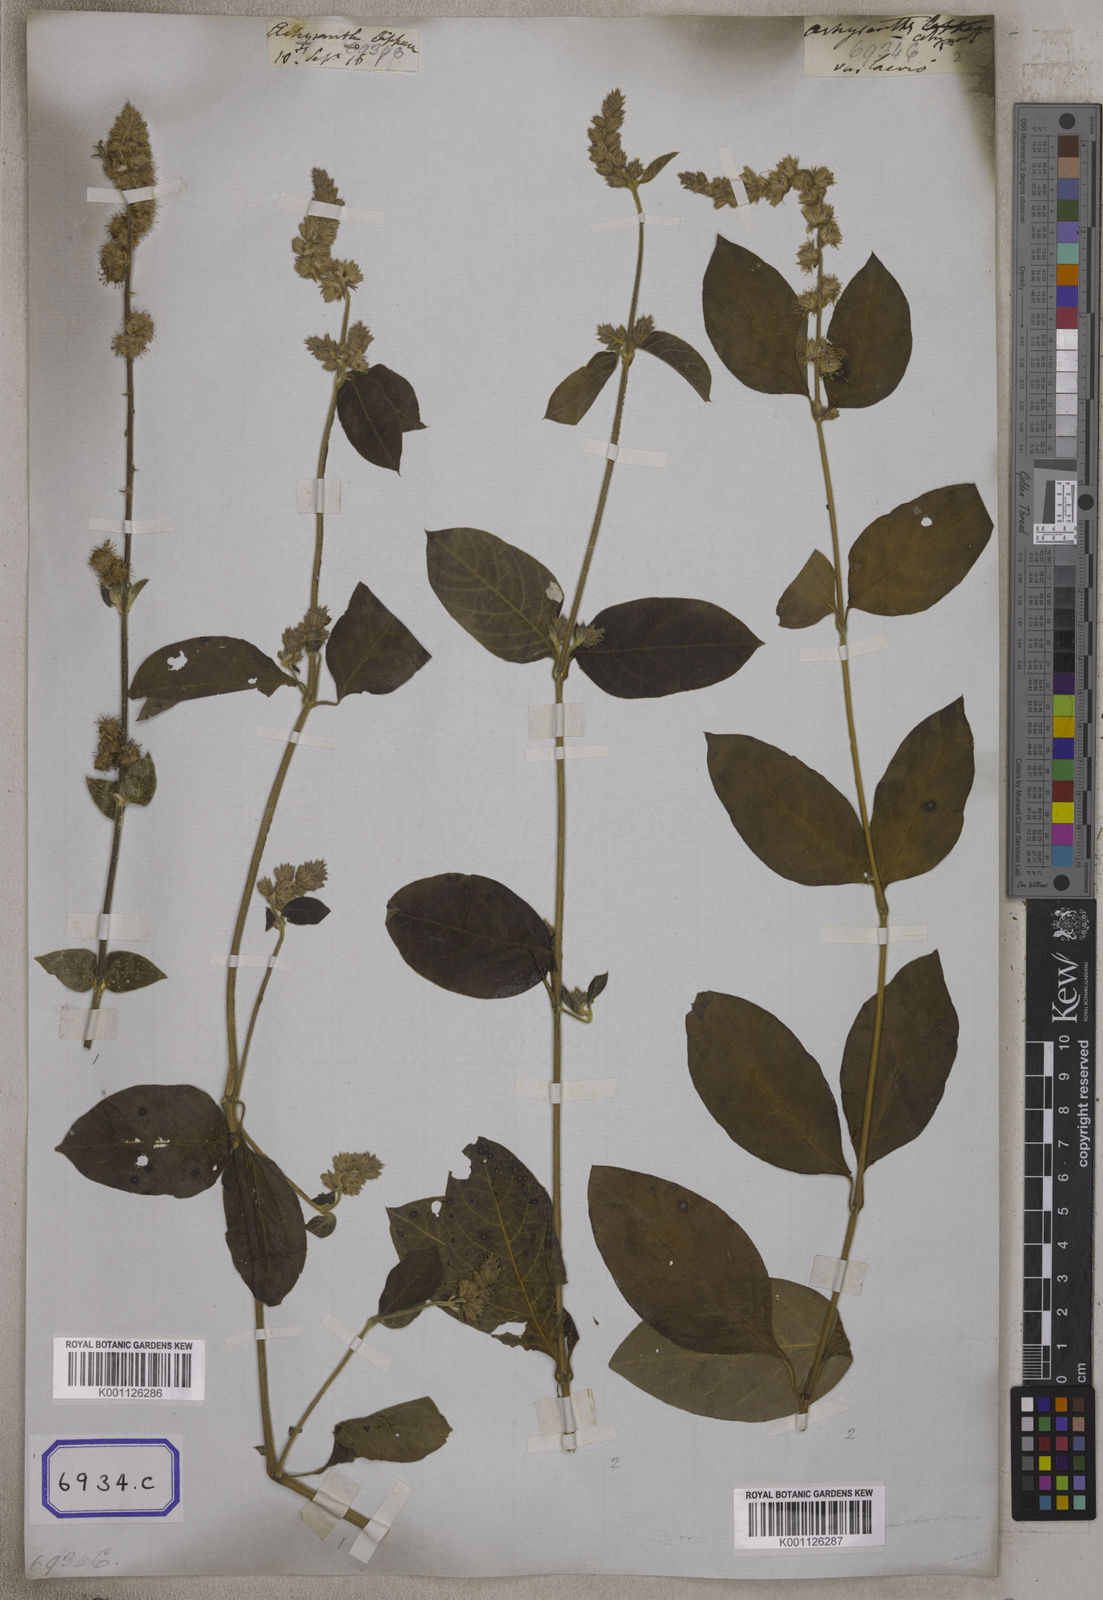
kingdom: Plantae
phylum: Tracheophyta
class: Magnoliopsida
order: Caryophyllales
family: Amaranthaceae
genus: Pupalia
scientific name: Pupalia lappacea
